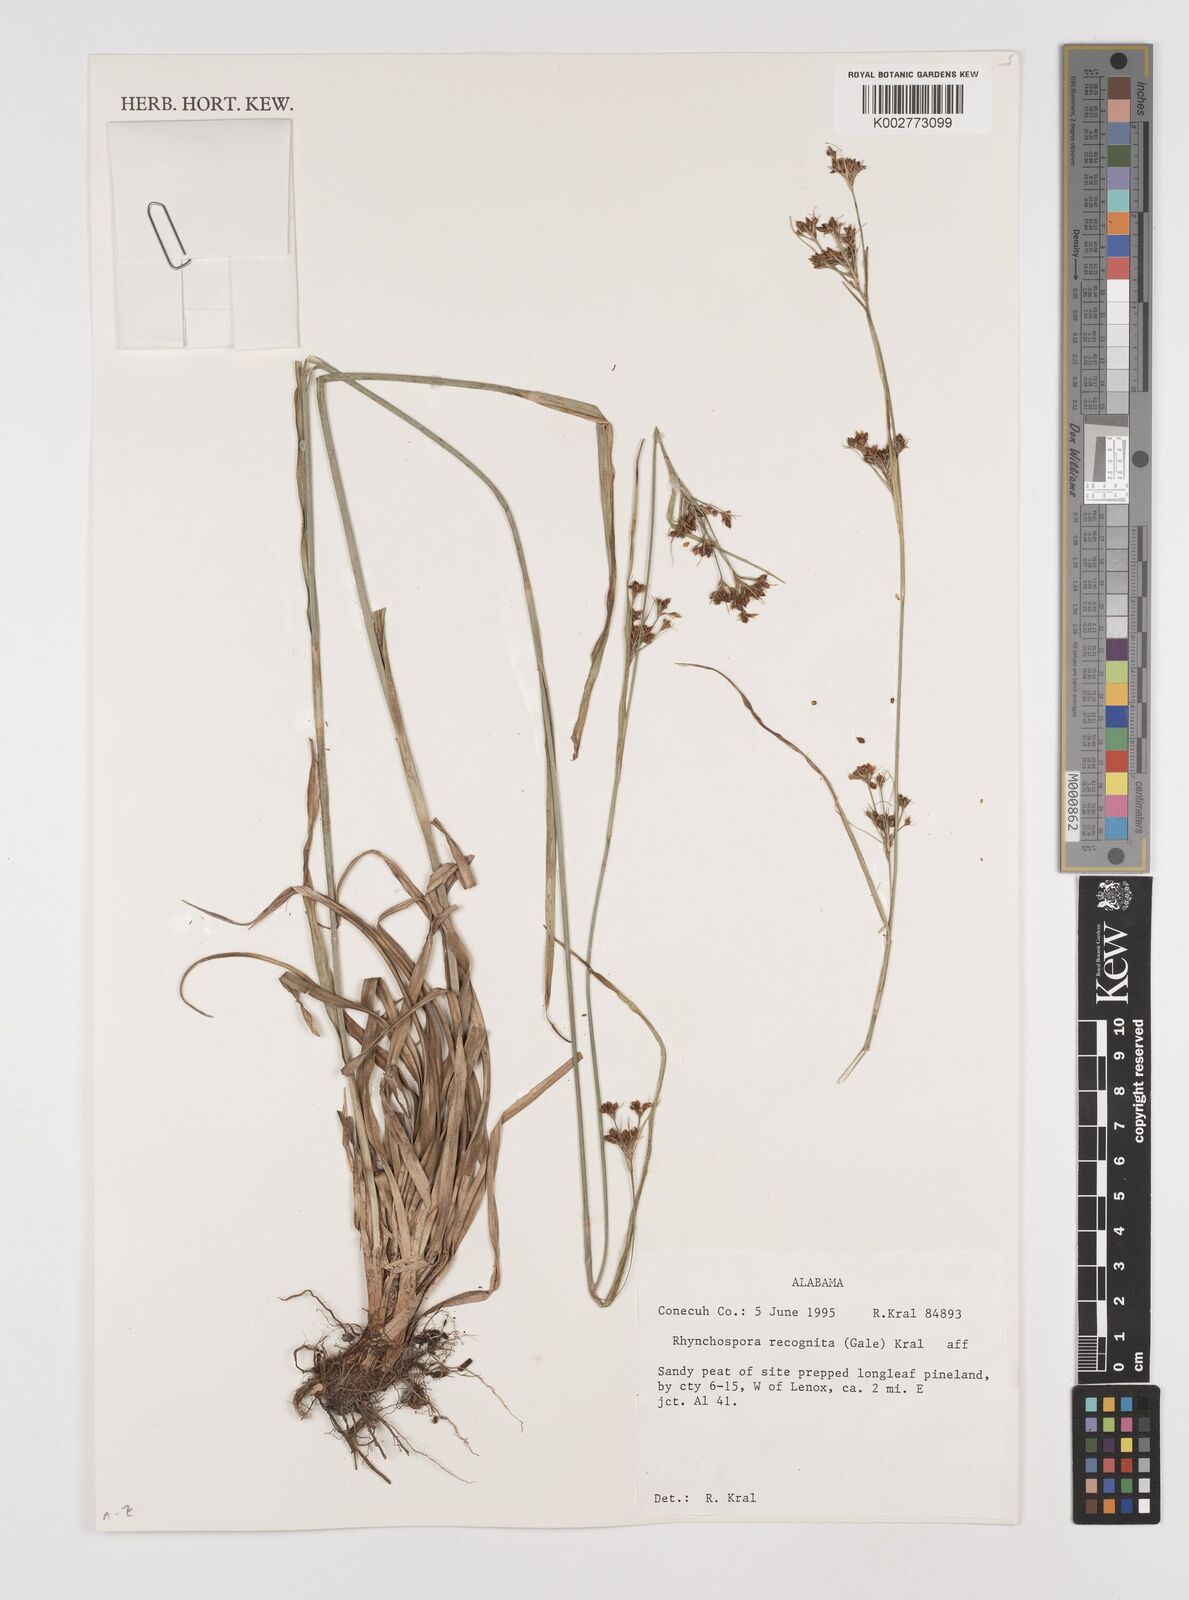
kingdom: Plantae
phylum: Tracheophyta
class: Liliopsida
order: Poales
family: Cyperaceae
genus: Rhynchospora
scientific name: Rhynchospora recognita
